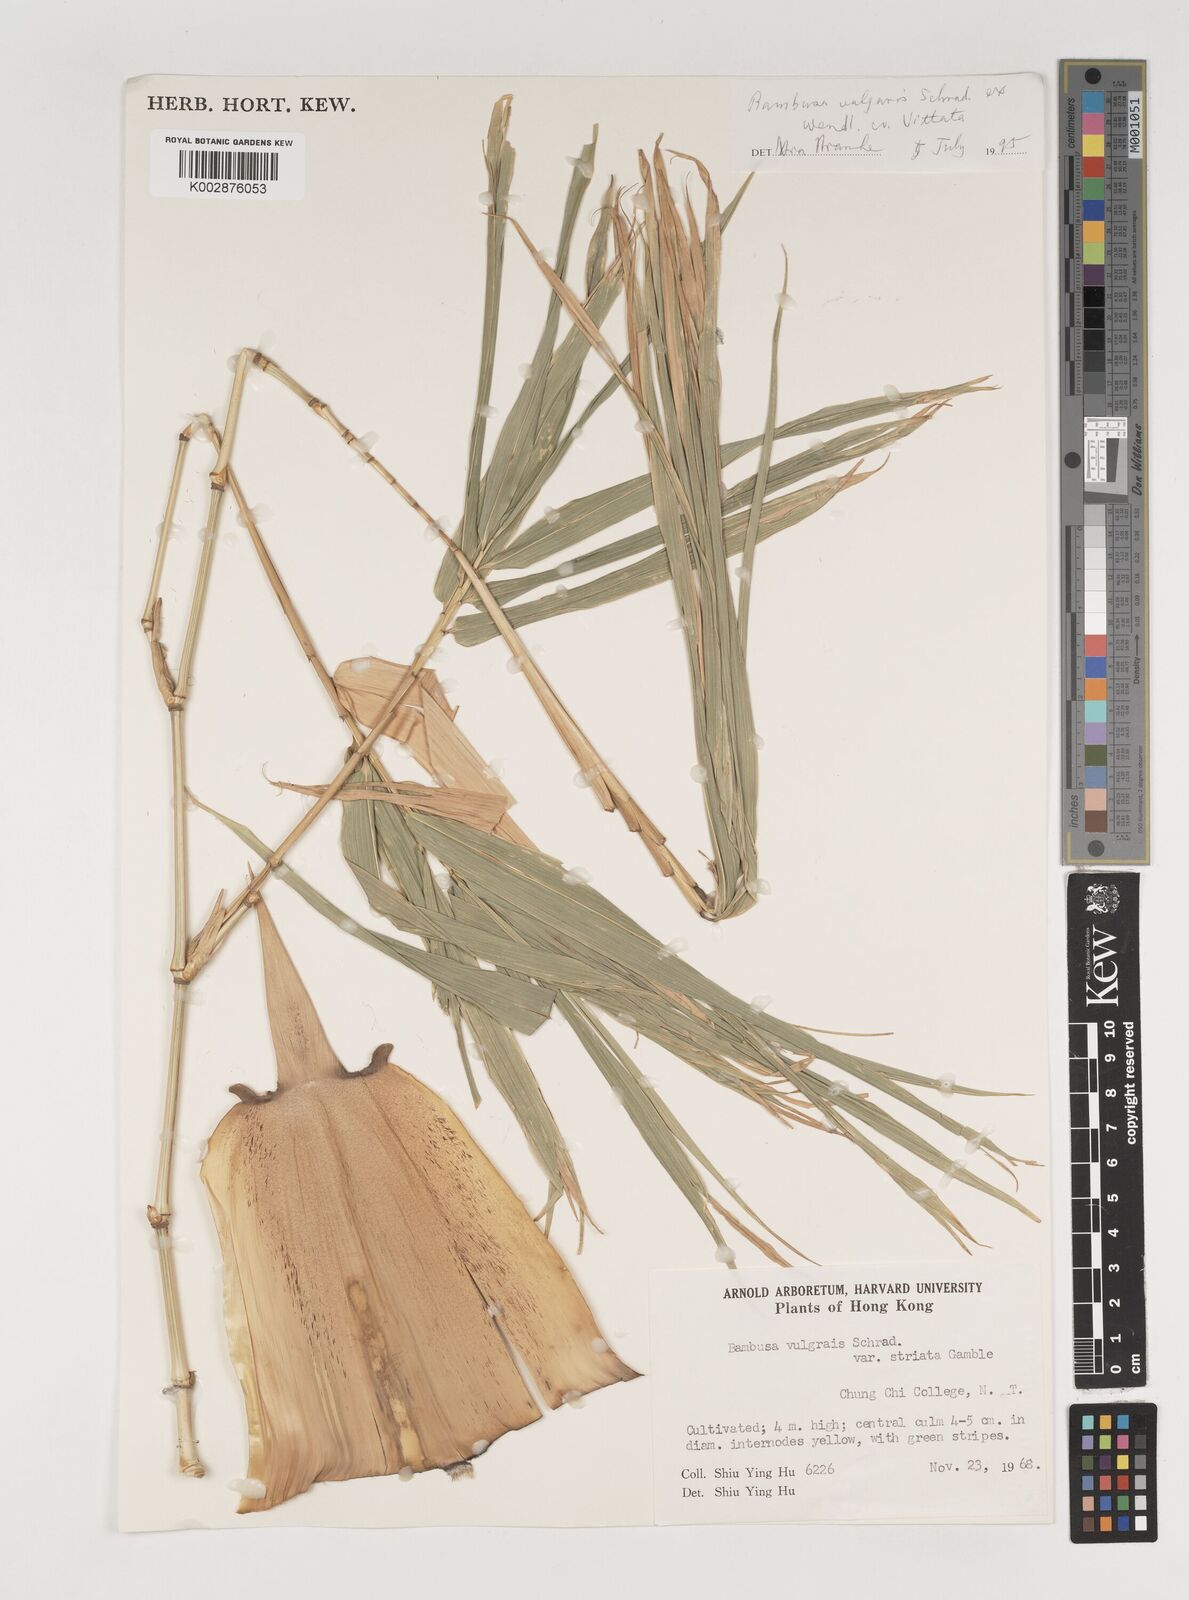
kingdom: Plantae
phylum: Tracheophyta
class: Liliopsida
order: Poales
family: Poaceae
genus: Bambusa
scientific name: Bambusa vulgaris
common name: Common bamboo
